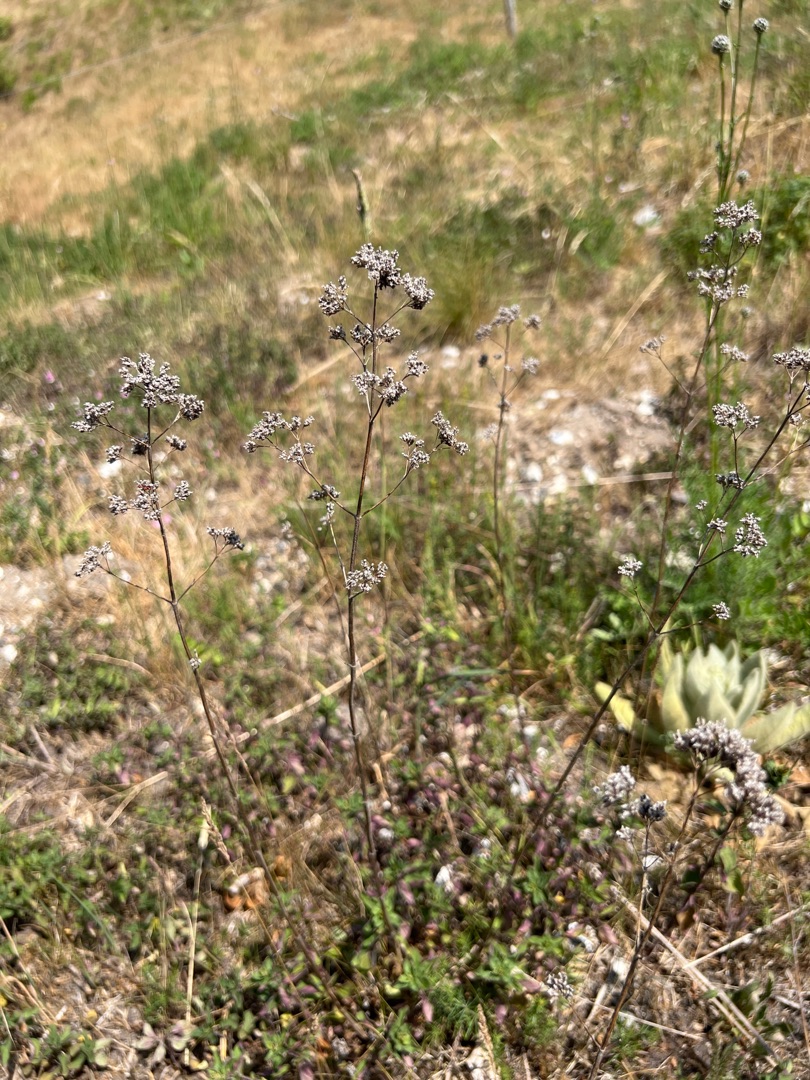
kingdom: Plantae
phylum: Tracheophyta
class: Magnoliopsida
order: Lamiales
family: Lamiaceae
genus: Origanum
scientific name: Origanum vulgare
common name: Merian
